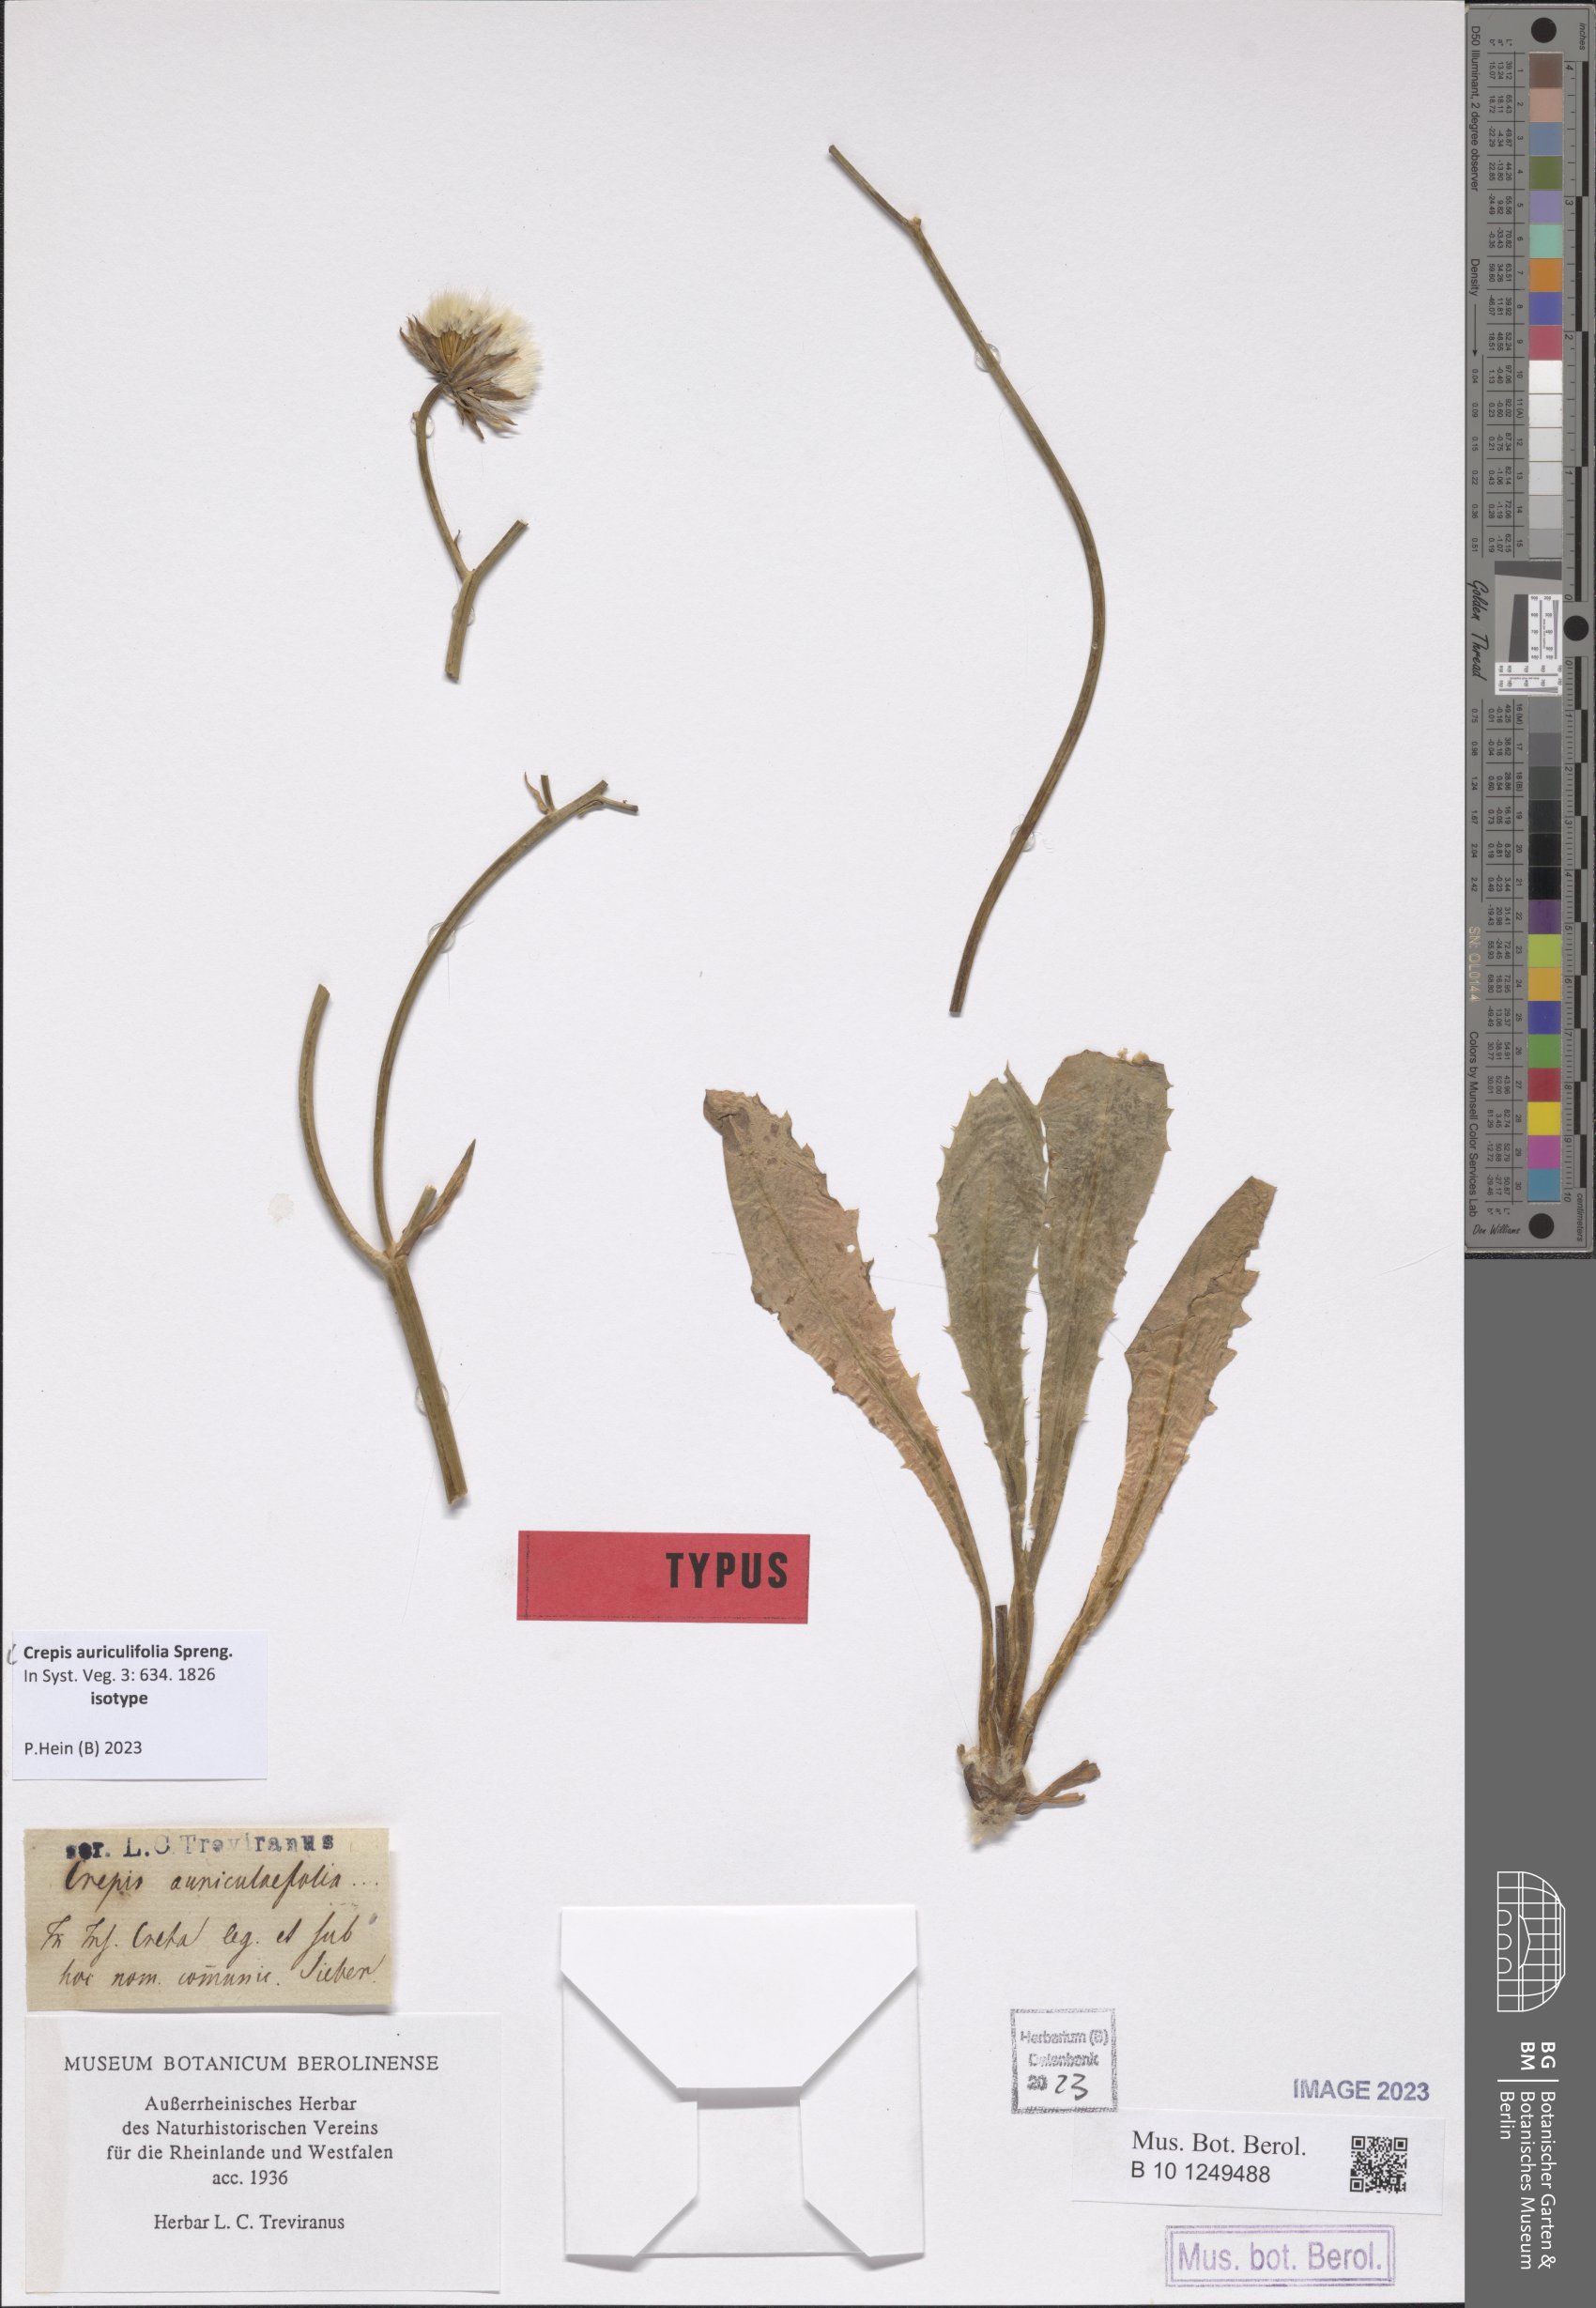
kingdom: Plantae
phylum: Tracheophyta
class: Magnoliopsida
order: Asterales
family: Asteraceae
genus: Crepis
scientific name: Crepis auriculifolia
